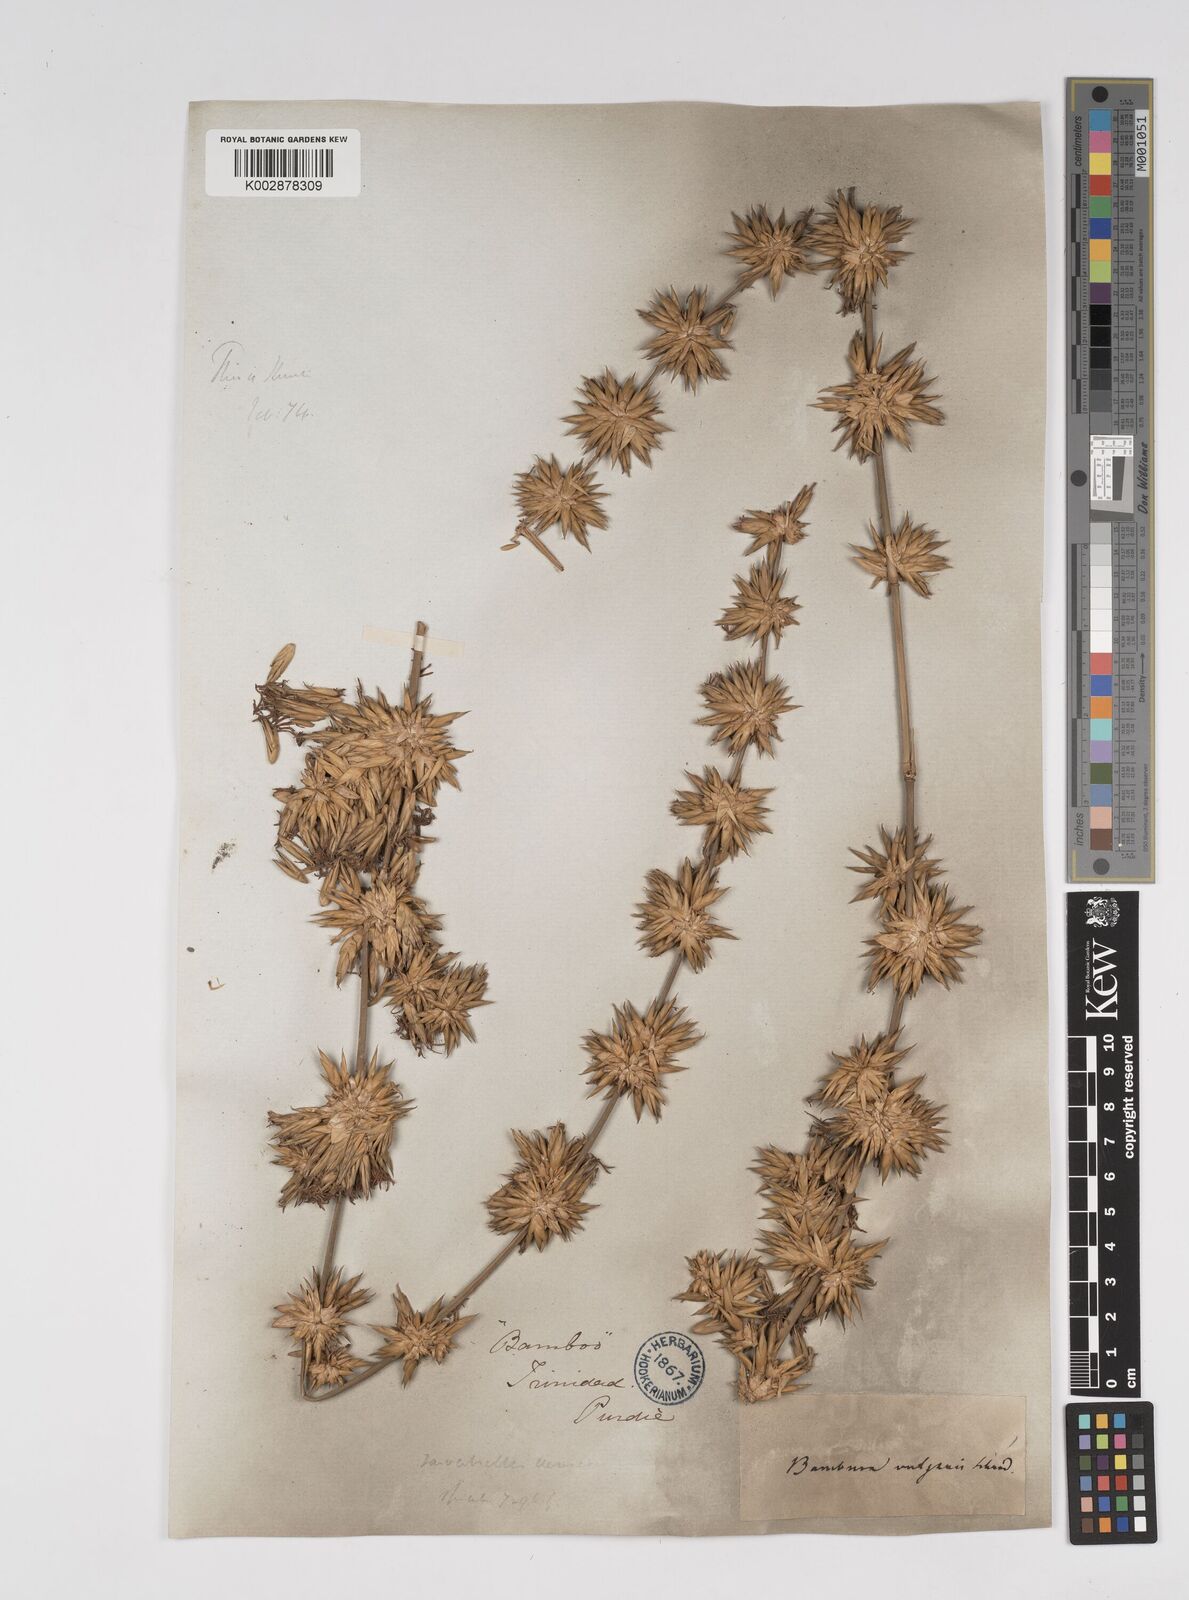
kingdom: Plantae
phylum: Tracheophyta
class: Liliopsida
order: Poales
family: Poaceae
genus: Bambusa
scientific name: Bambusa vulgaris
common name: Common bamboo
